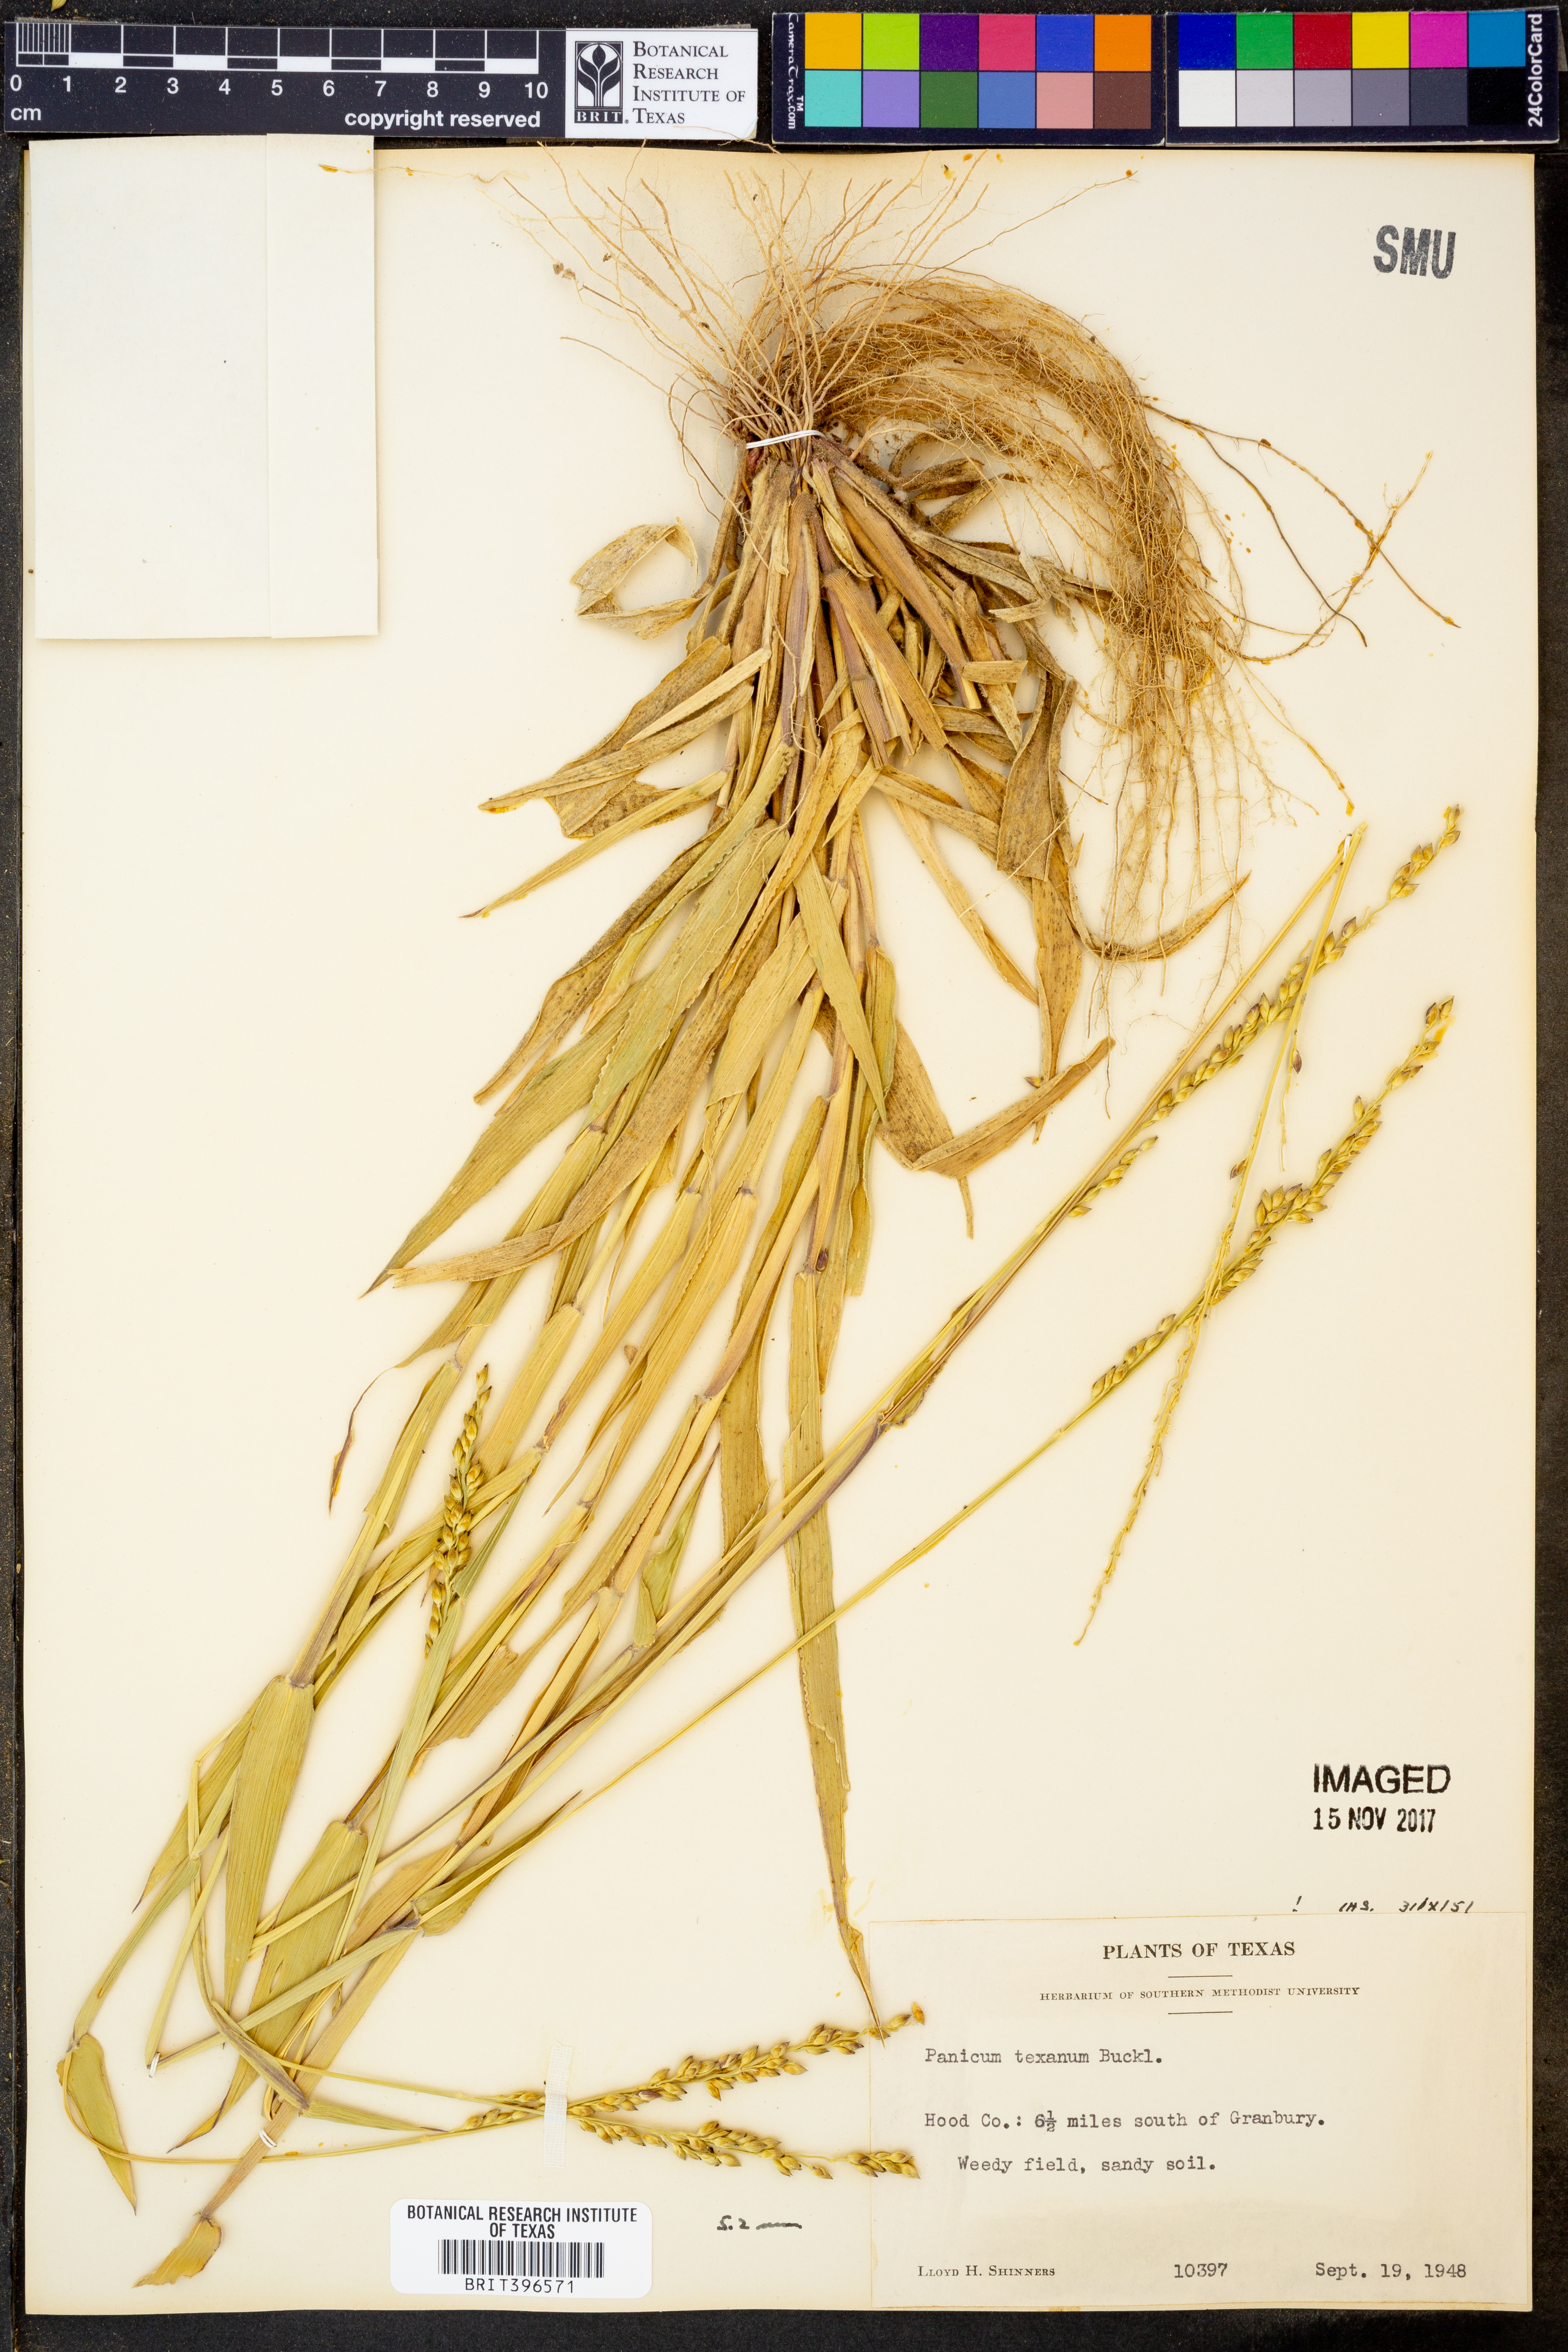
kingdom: Plantae
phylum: Tracheophyta
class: Liliopsida
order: Poales
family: Poaceae
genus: Urochloa
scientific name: Urochloa texana
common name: Texas millet
